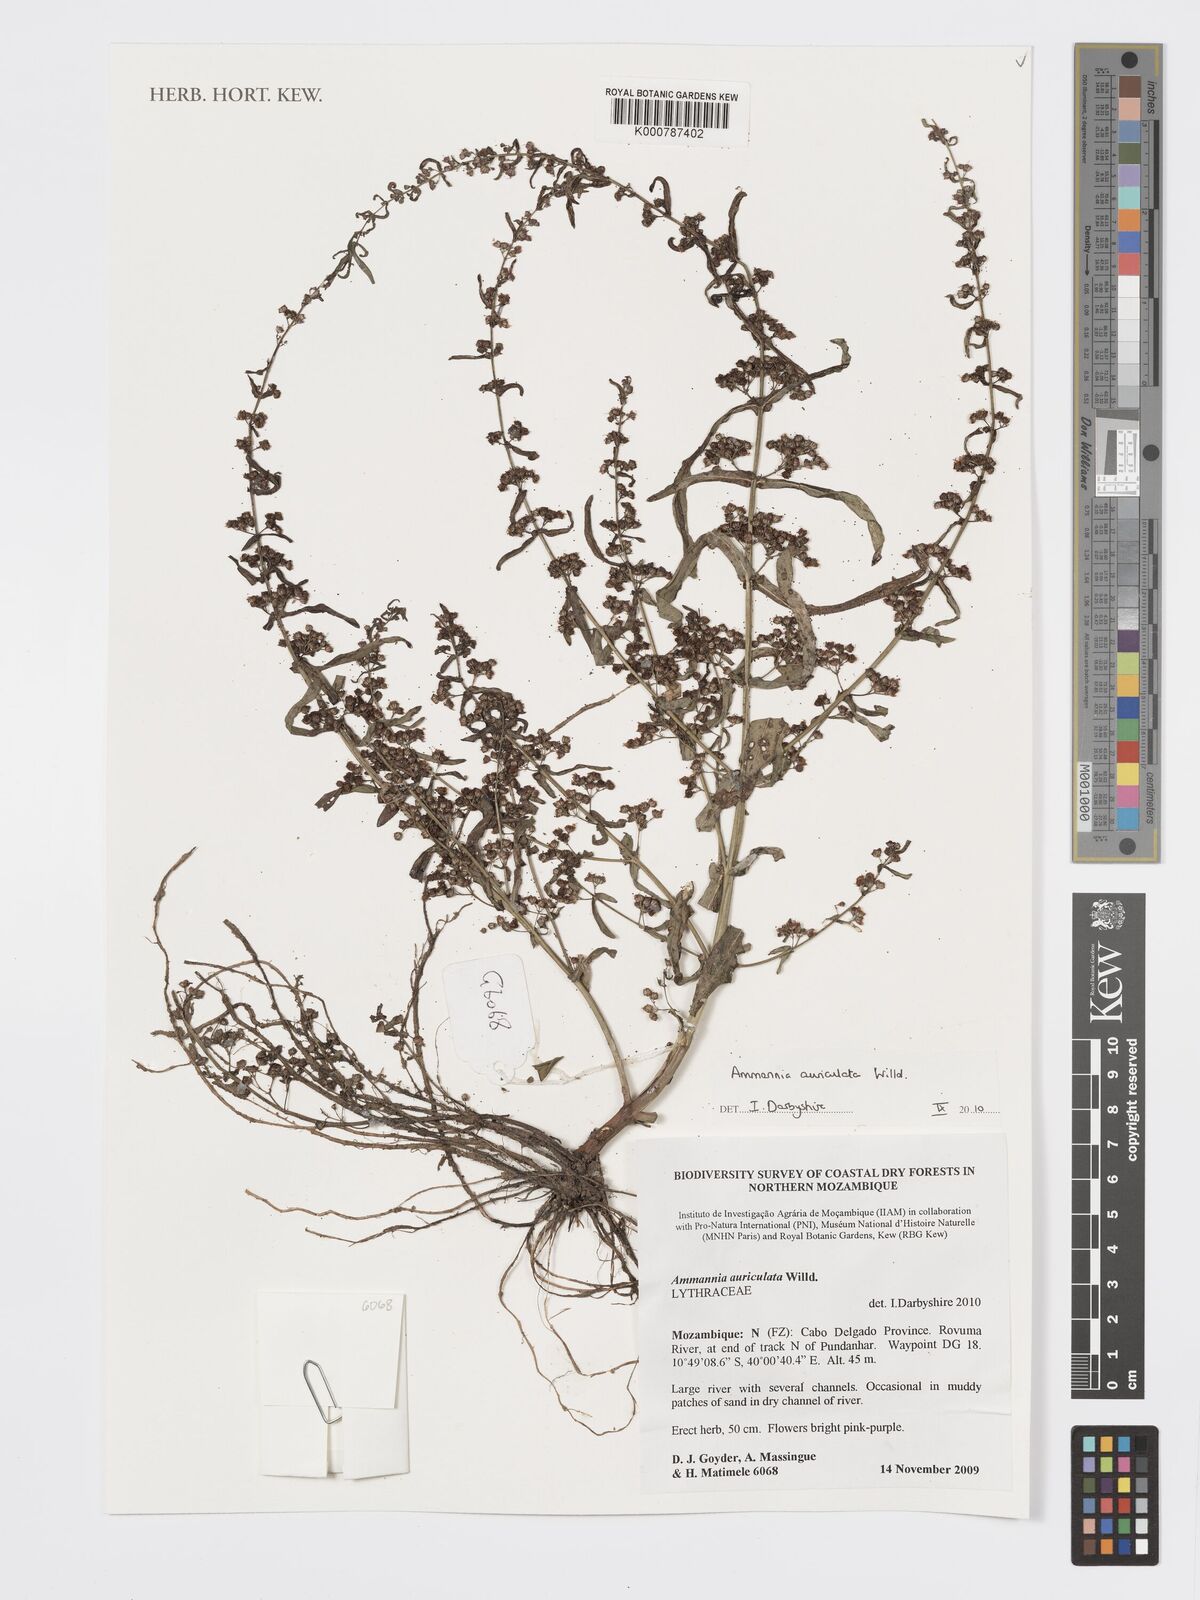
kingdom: Plantae
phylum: Tracheophyta
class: Magnoliopsida
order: Myrtales
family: Lythraceae
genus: Ammannia
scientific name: Ammannia auriculata
